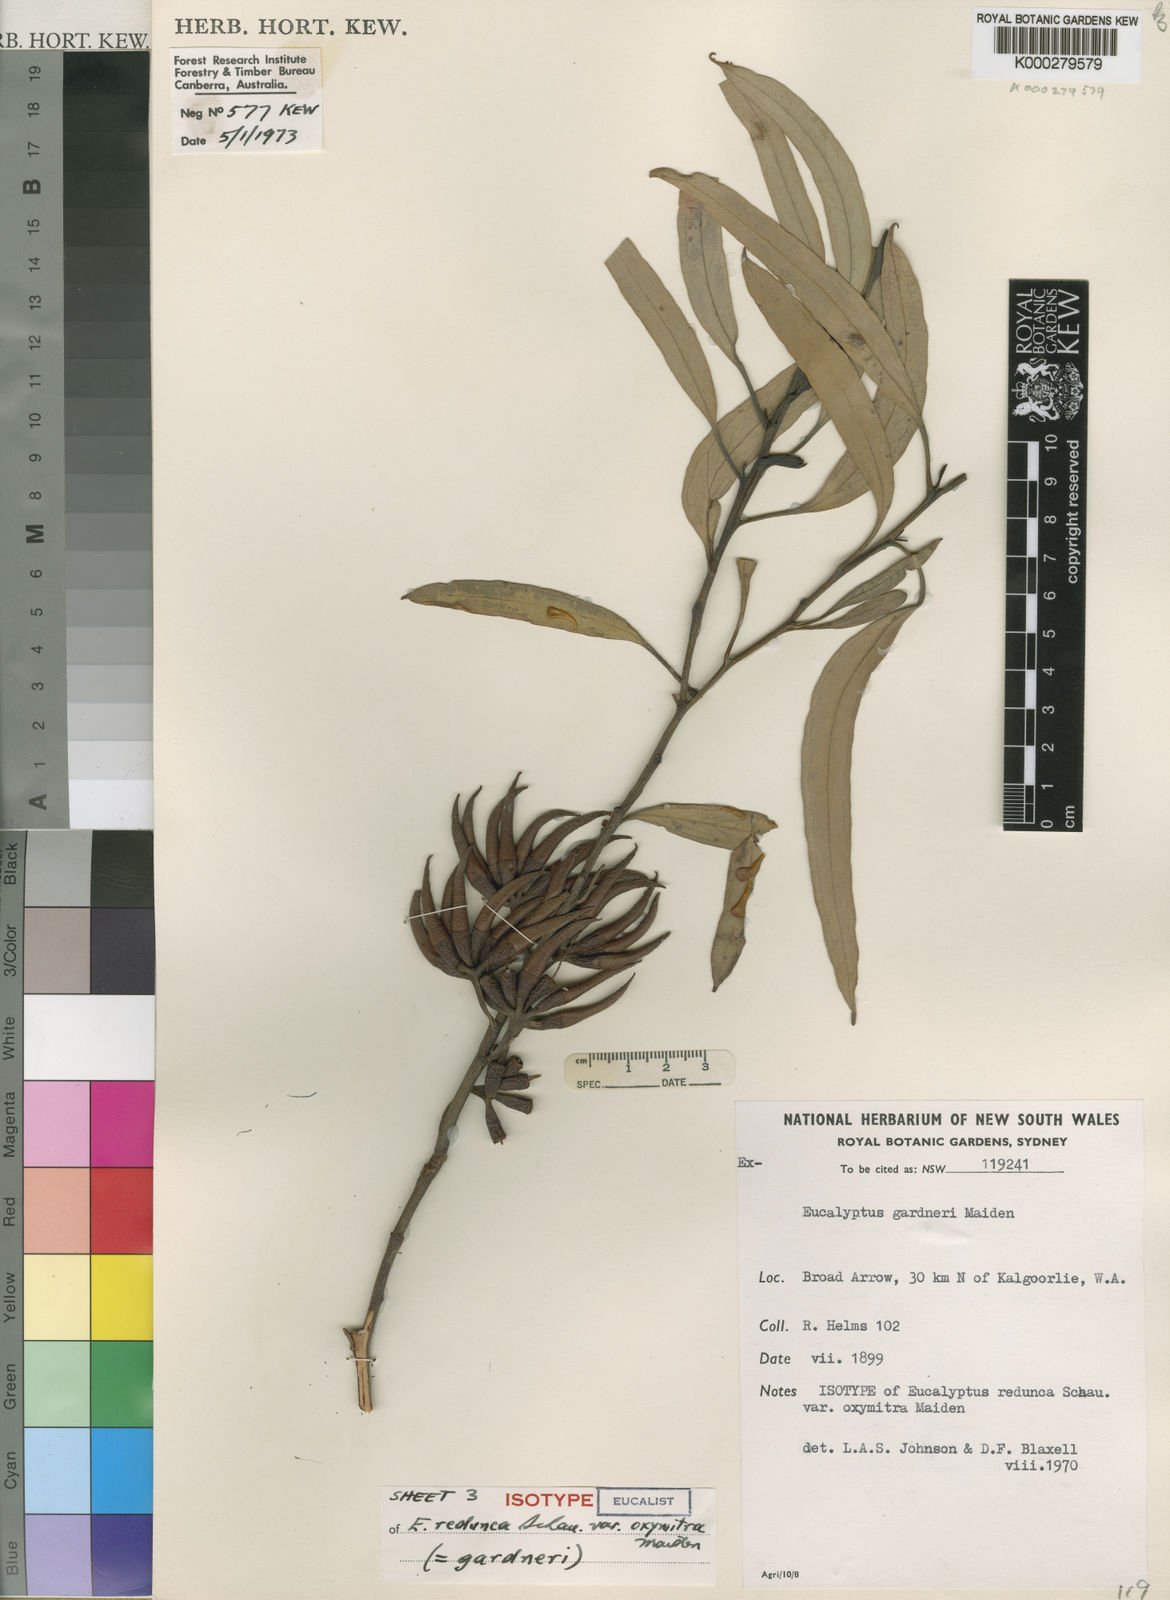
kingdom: Plantae
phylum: Tracheophyta
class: Magnoliopsida
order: Myrtales
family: Myrtaceae
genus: Eucalyptus
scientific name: Eucalyptus gardneri
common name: Blue mallet
